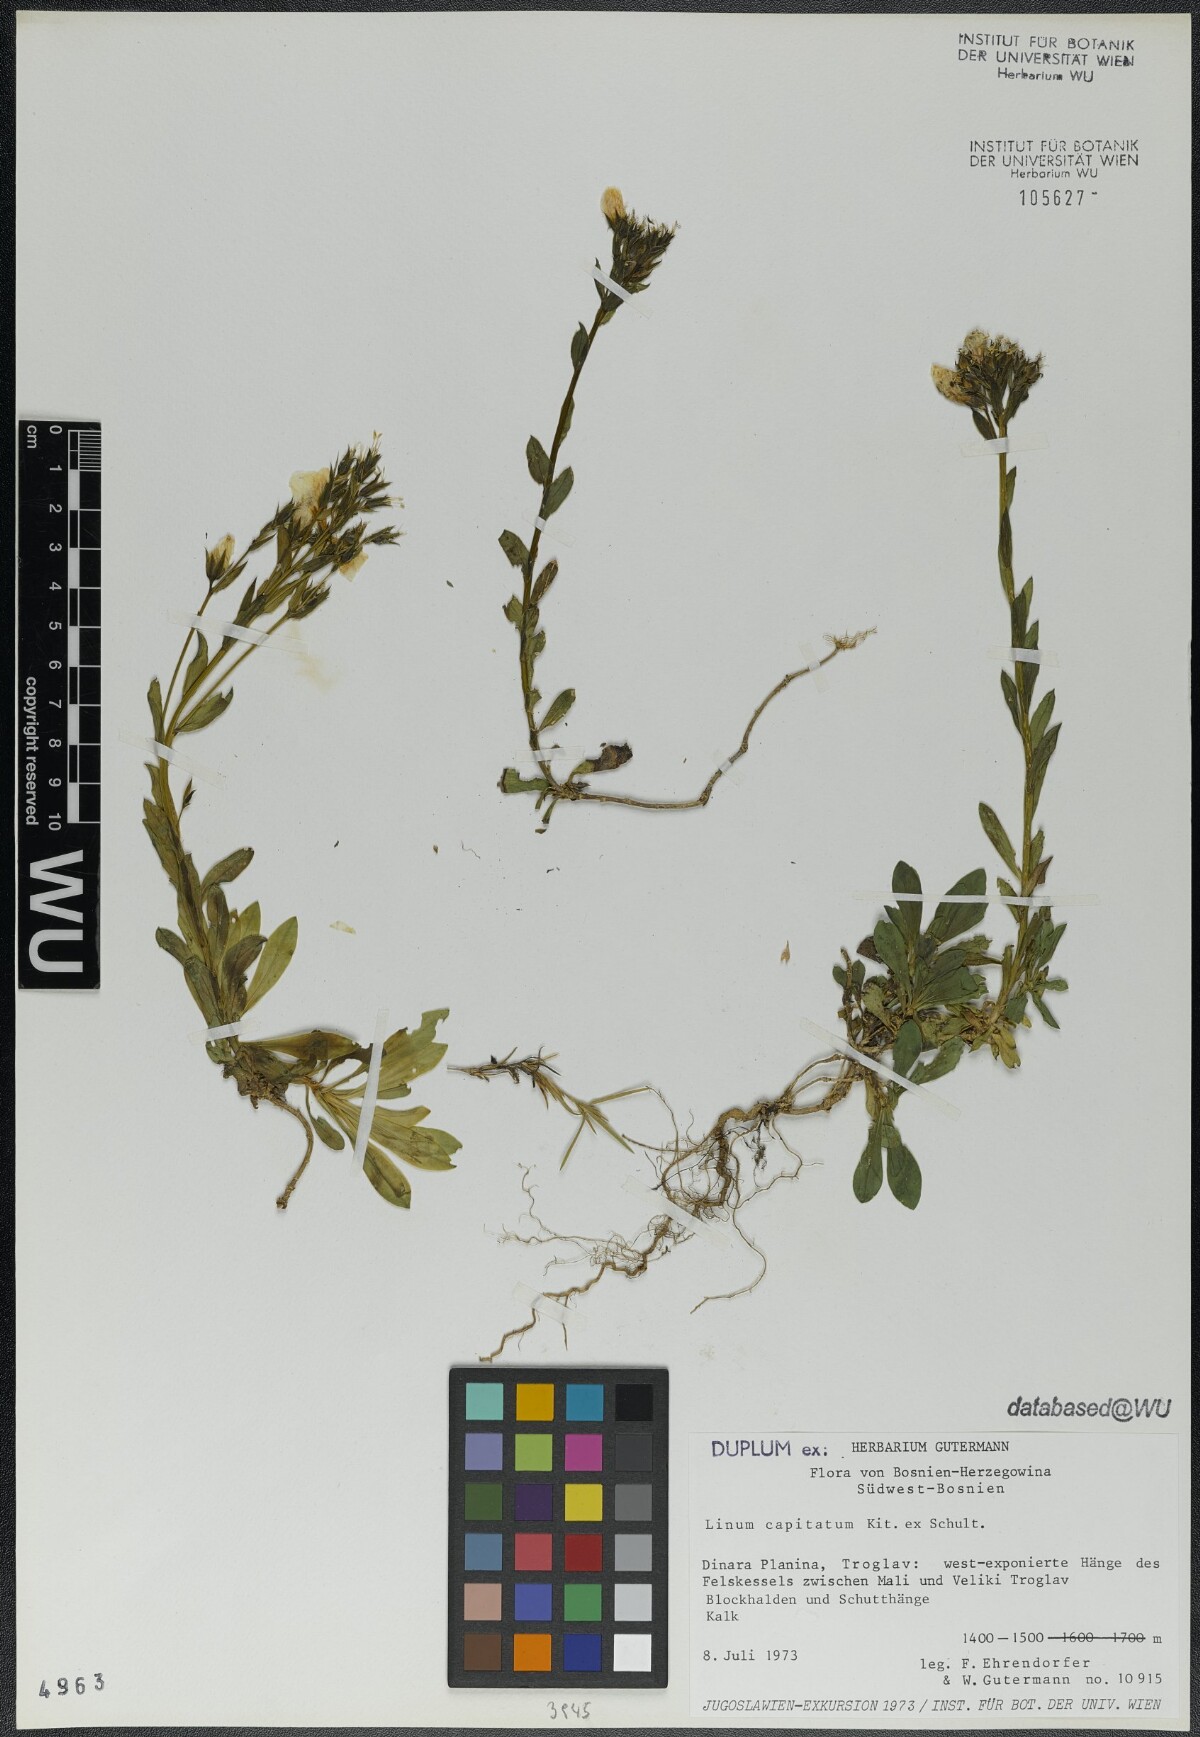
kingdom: Plantae
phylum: Tracheophyta
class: Magnoliopsida
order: Malpighiales
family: Linaceae
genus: Linum
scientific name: Linum capitatum
